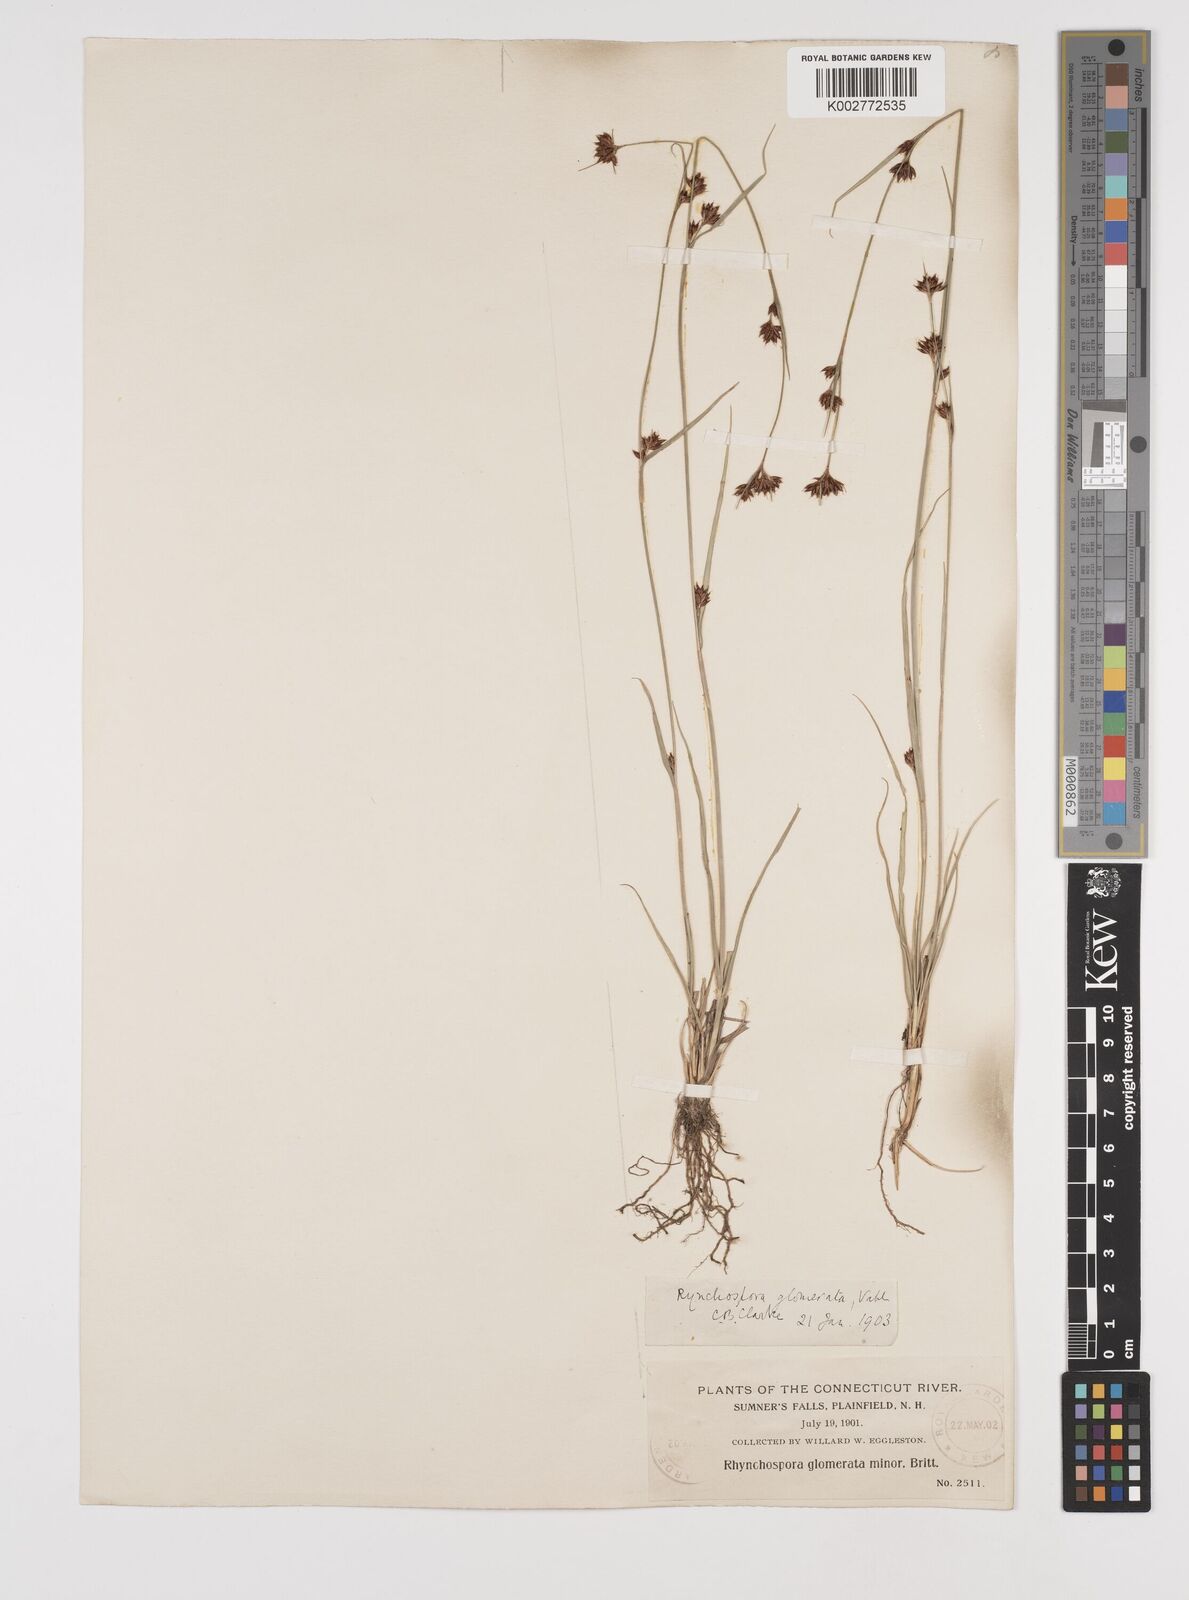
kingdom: Plantae
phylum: Tracheophyta
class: Liliopsida
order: Poales
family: Cyperaceae
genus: Rhynchospora
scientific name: Rhynchospora glomerata
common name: Cluster beak sedge
